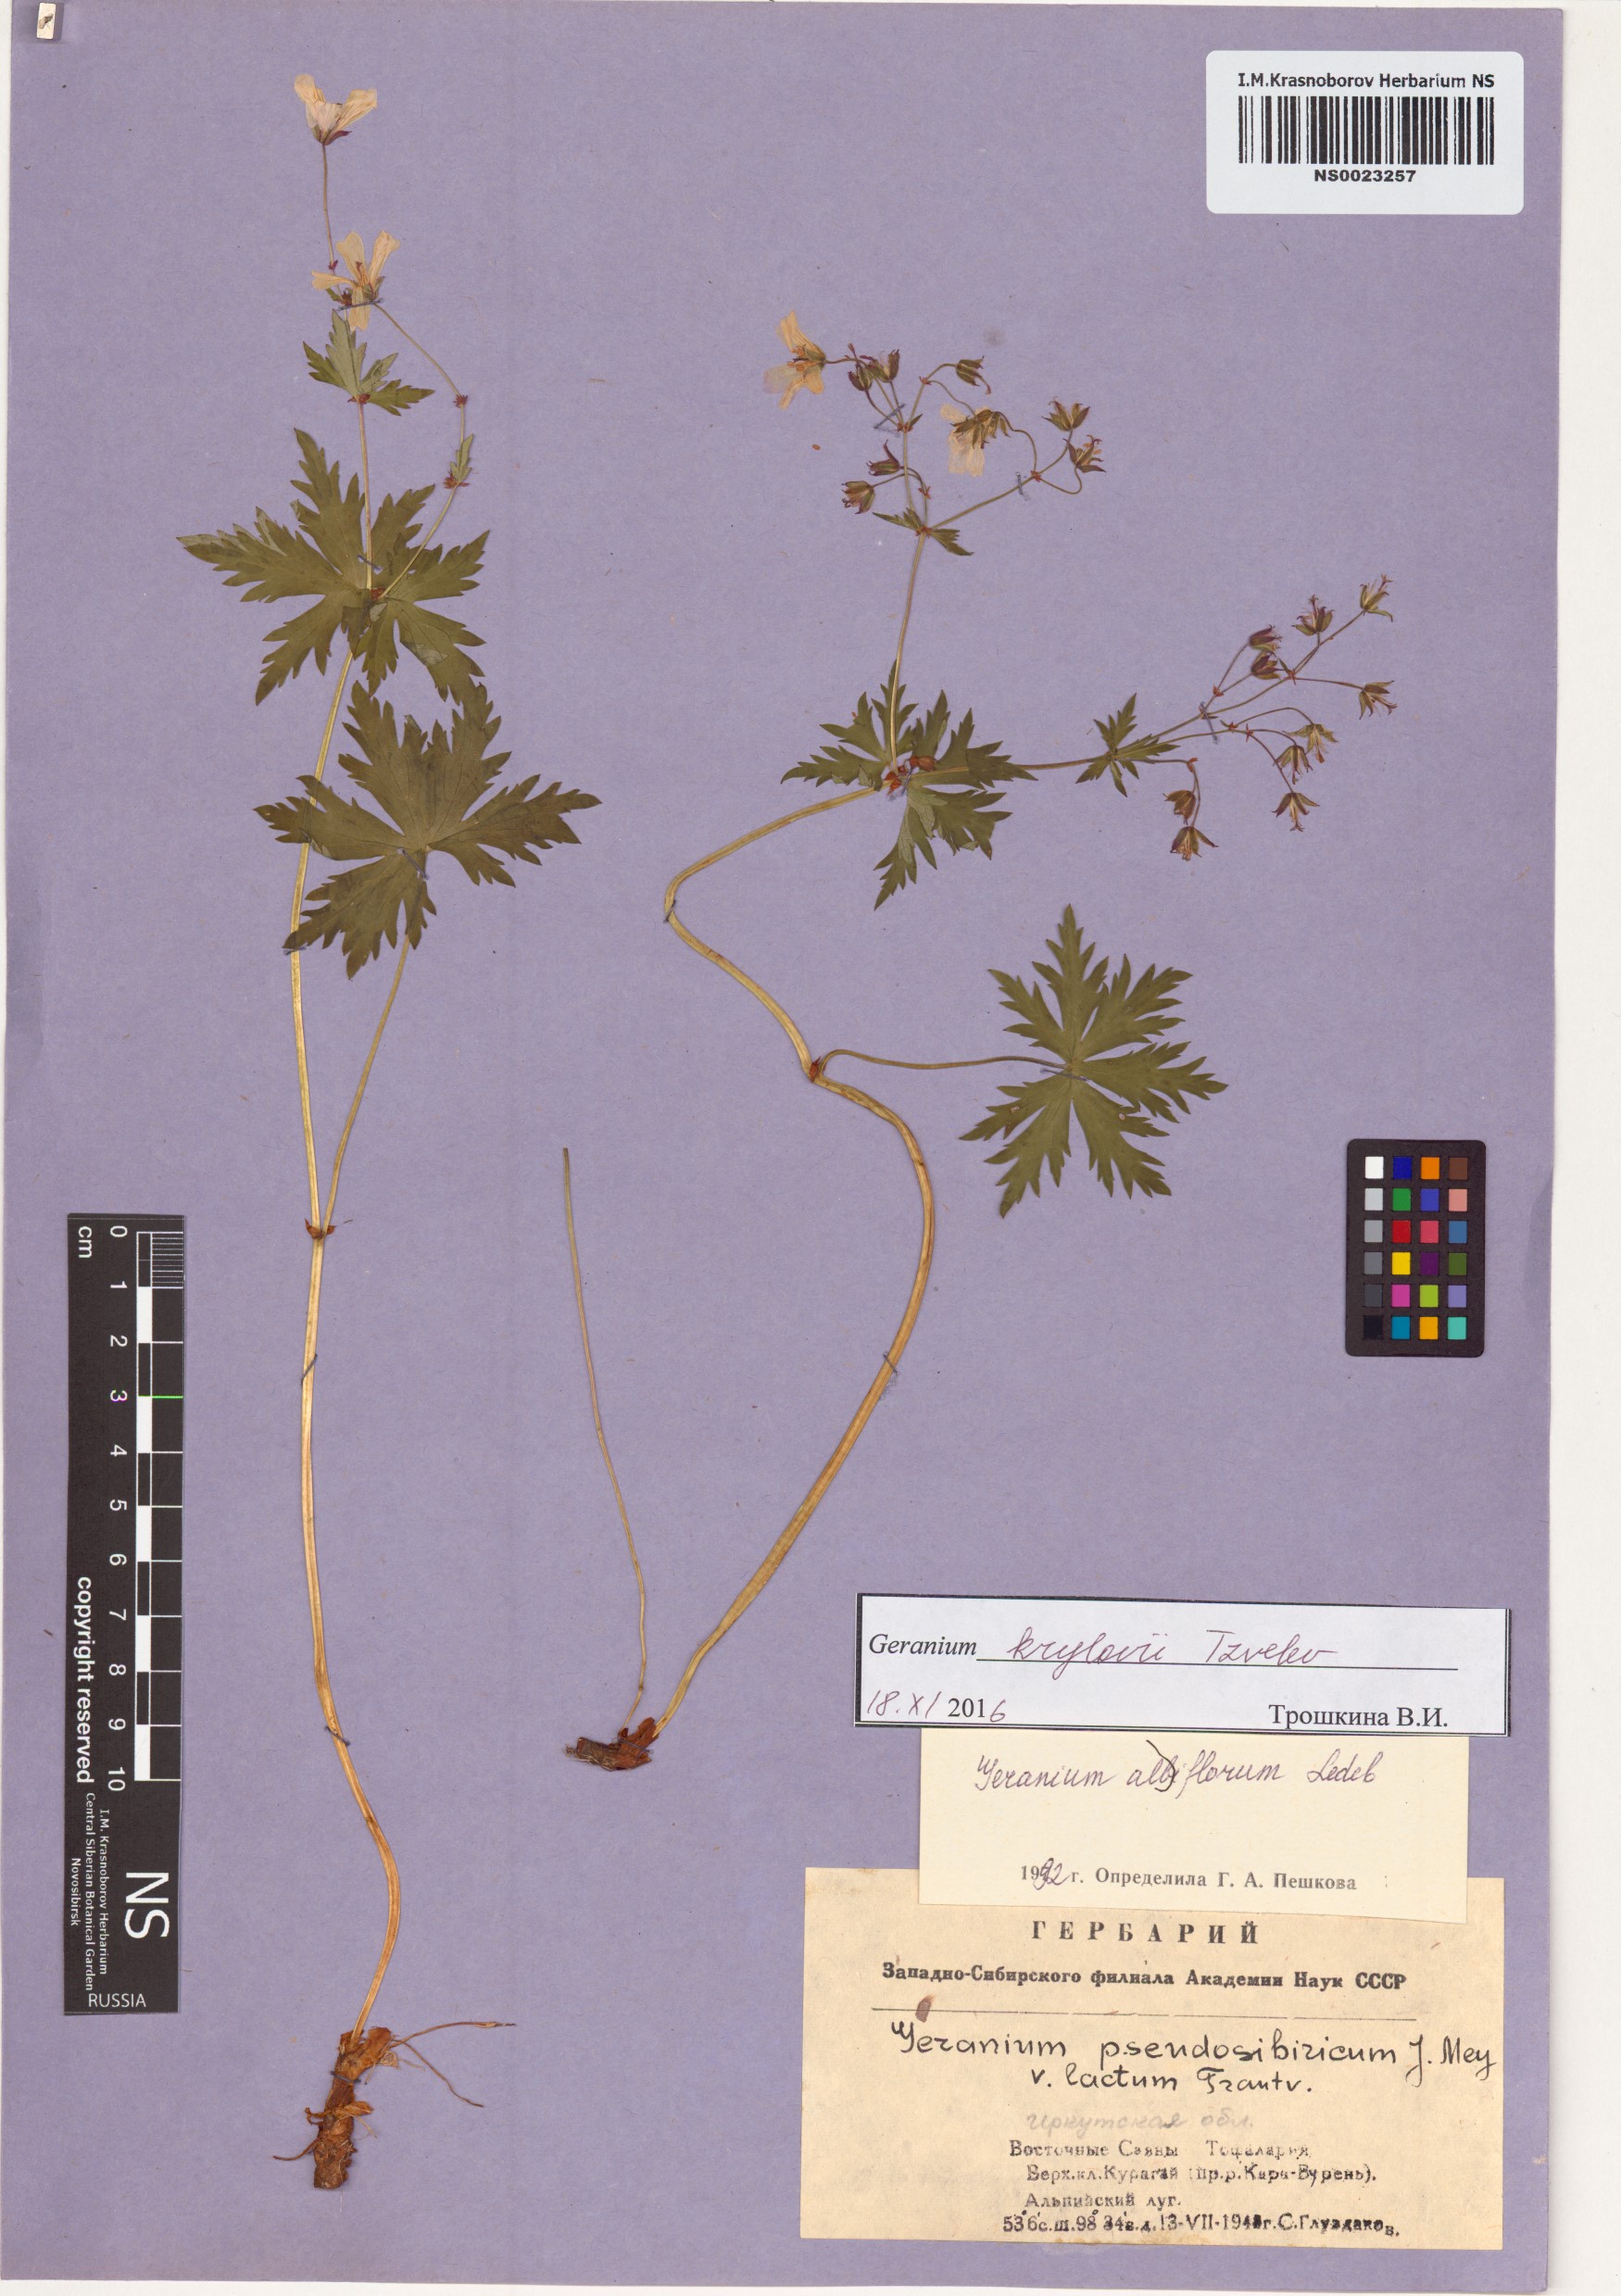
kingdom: Plantae
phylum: Tracheophyta
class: Magnoliopsida
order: Geraniales
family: Geraniaceae
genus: Geranium
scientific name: Geranium sylvaticum
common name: Wood crane's-bill
